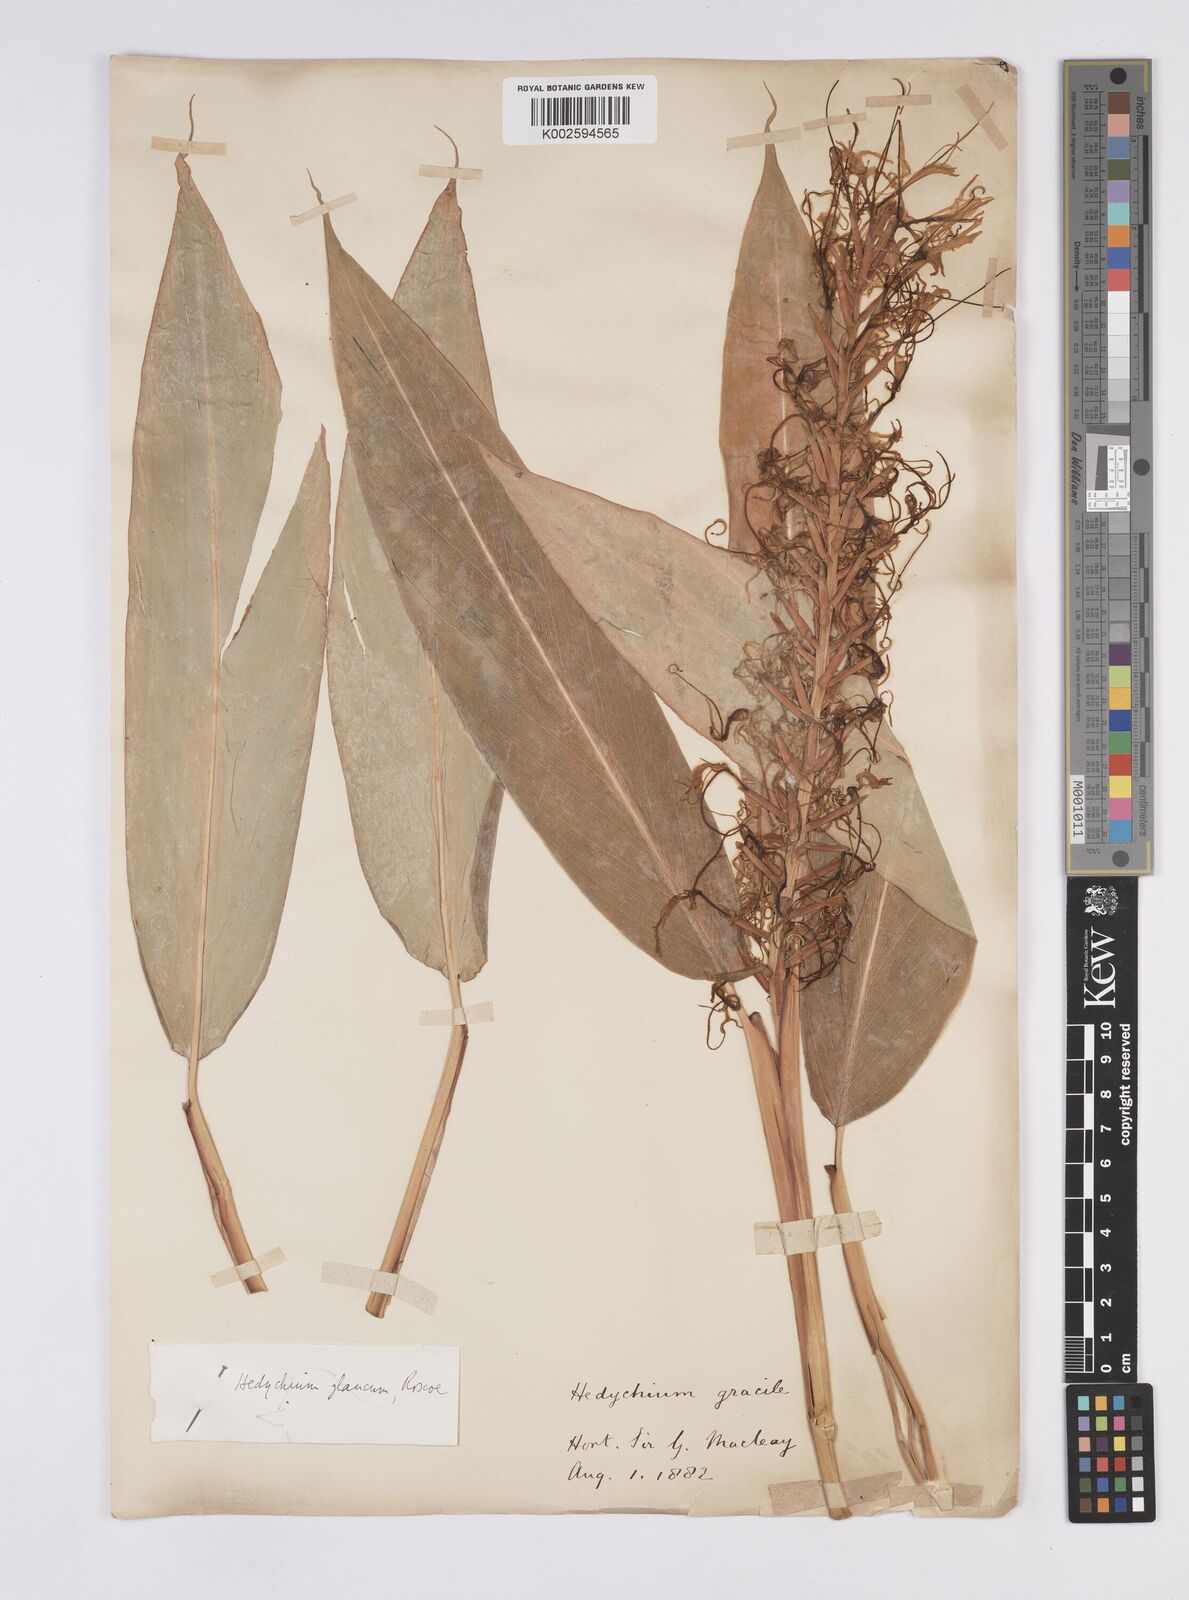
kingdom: Plantae
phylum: Tracheophyta
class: Liliopsida
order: Zingiberales
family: Zingiberaceae
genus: Hedychium
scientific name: Hedychium glaucum
